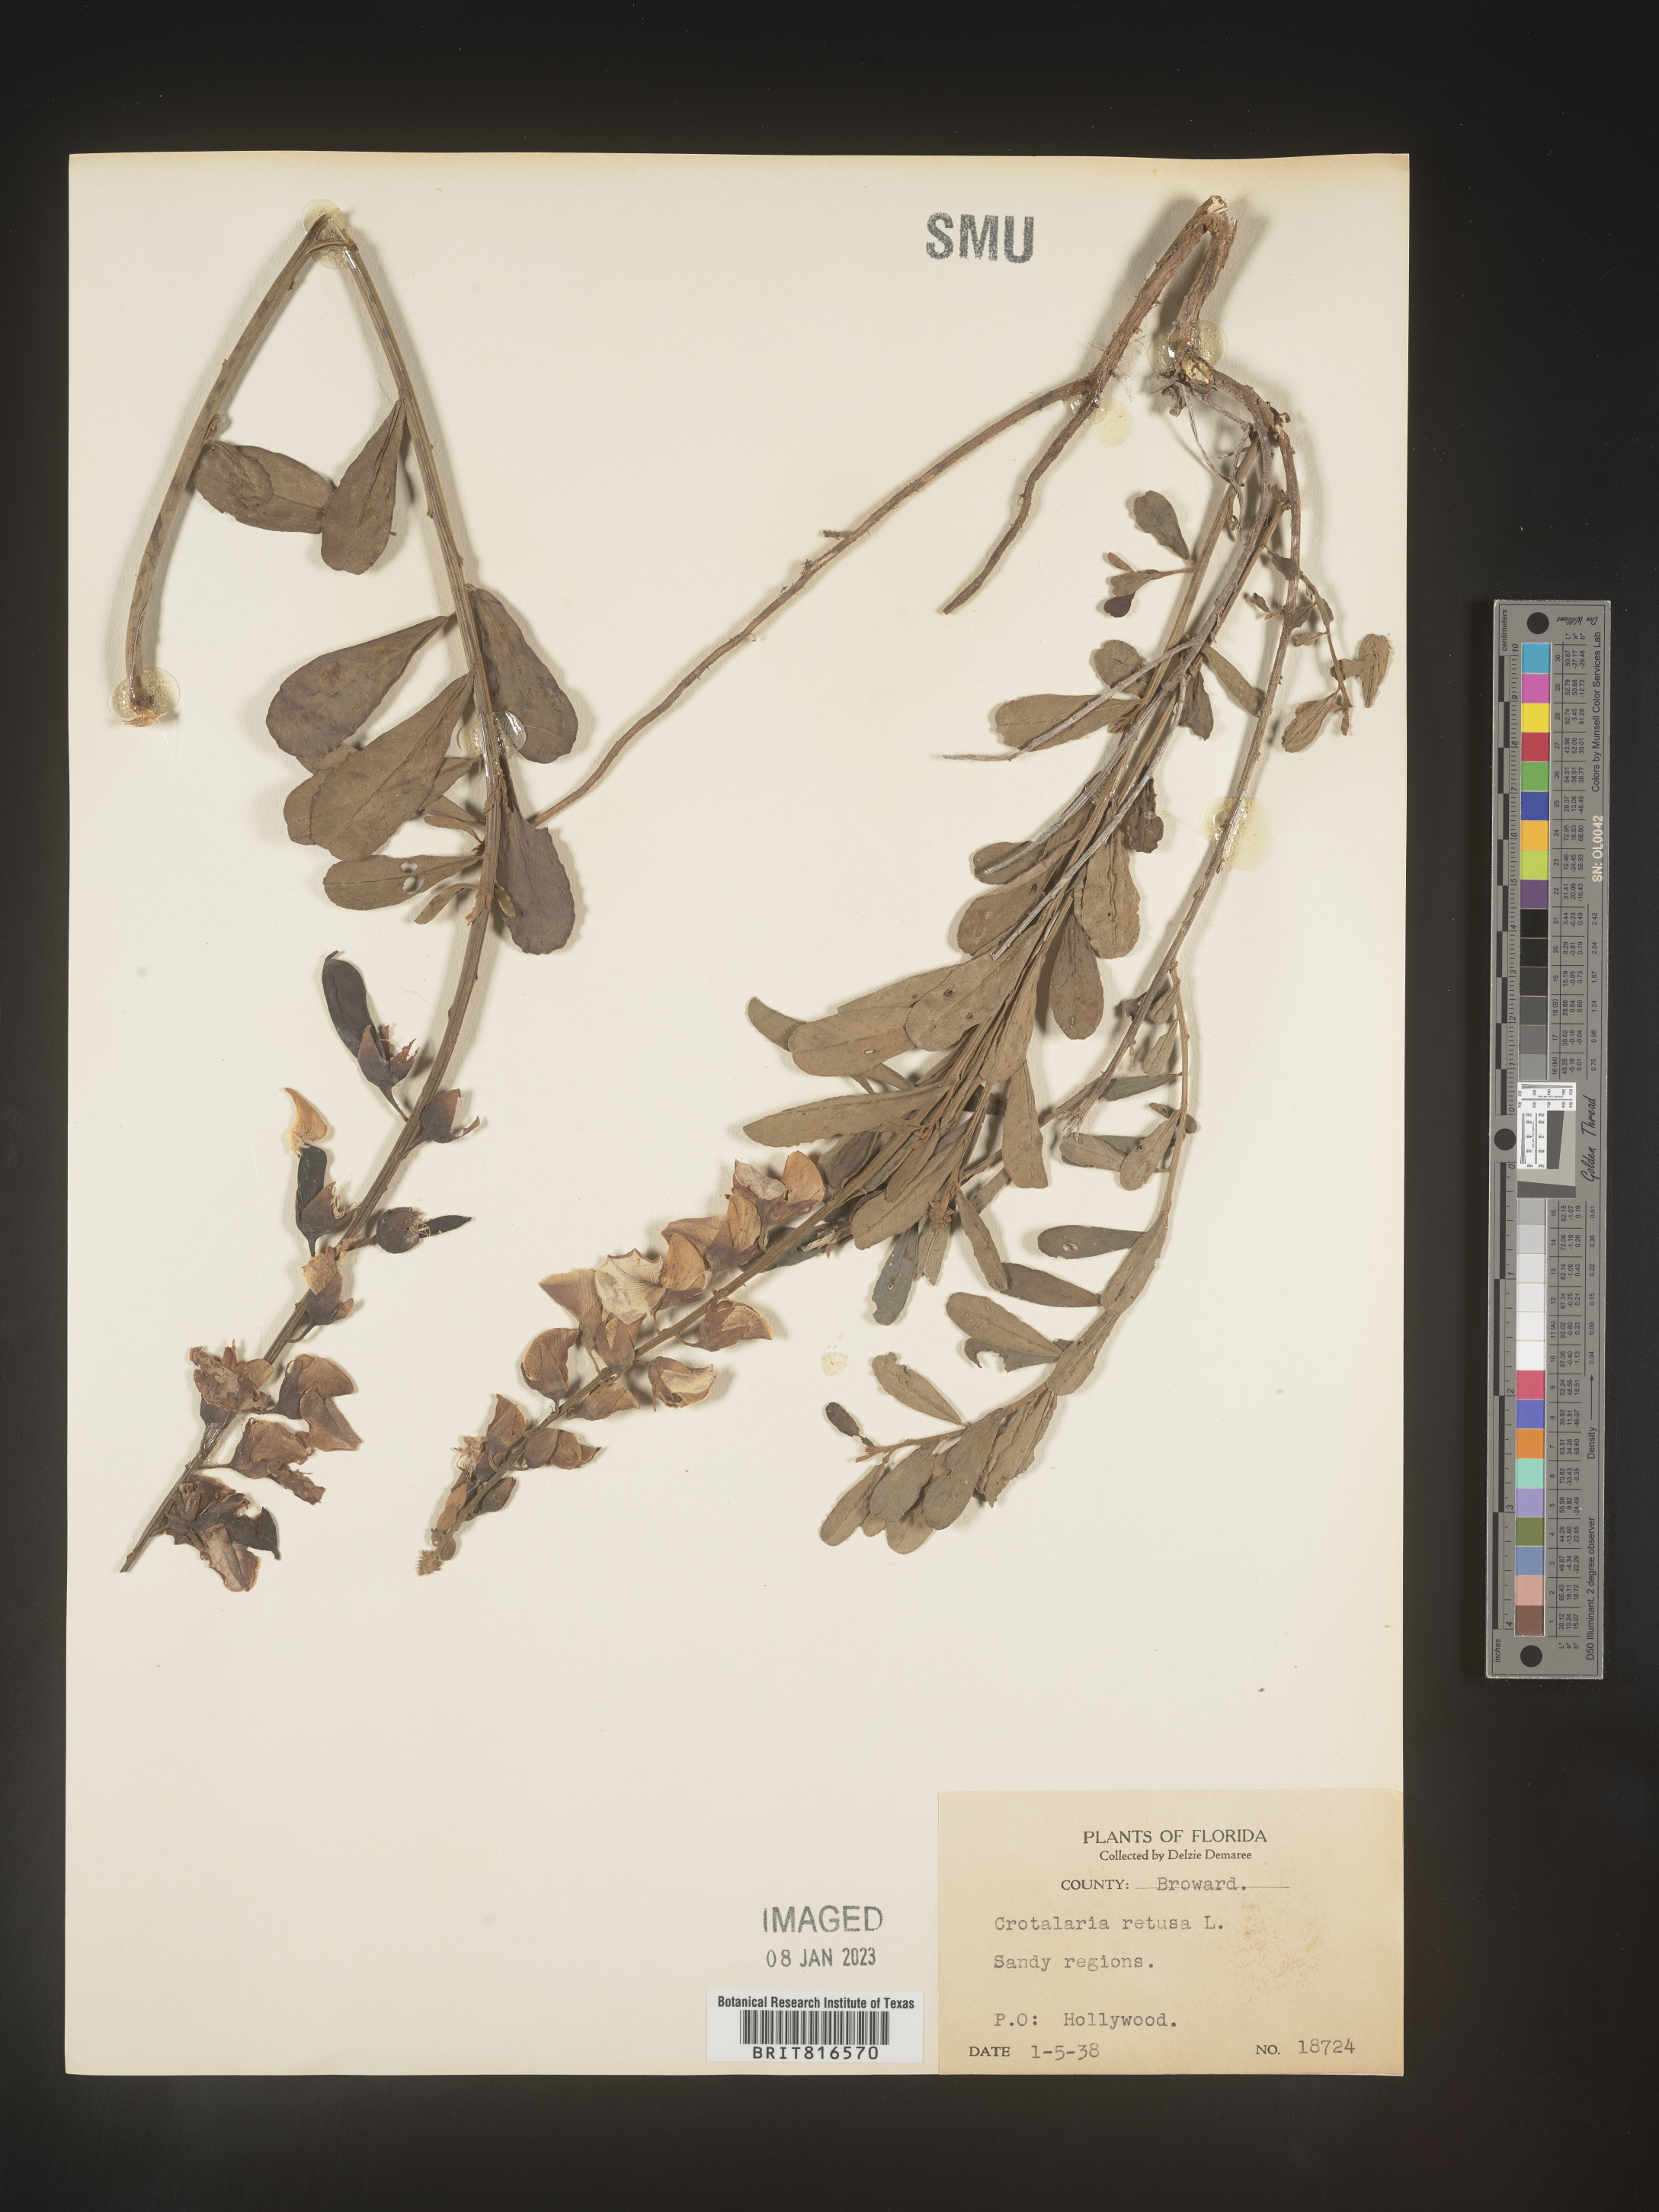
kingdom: Plantae
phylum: Tracheophyta
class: Magnoliopsida
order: Fabales
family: Fabaceae
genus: Crotalaria
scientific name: Crotalaria retusa
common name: Rattleweed
